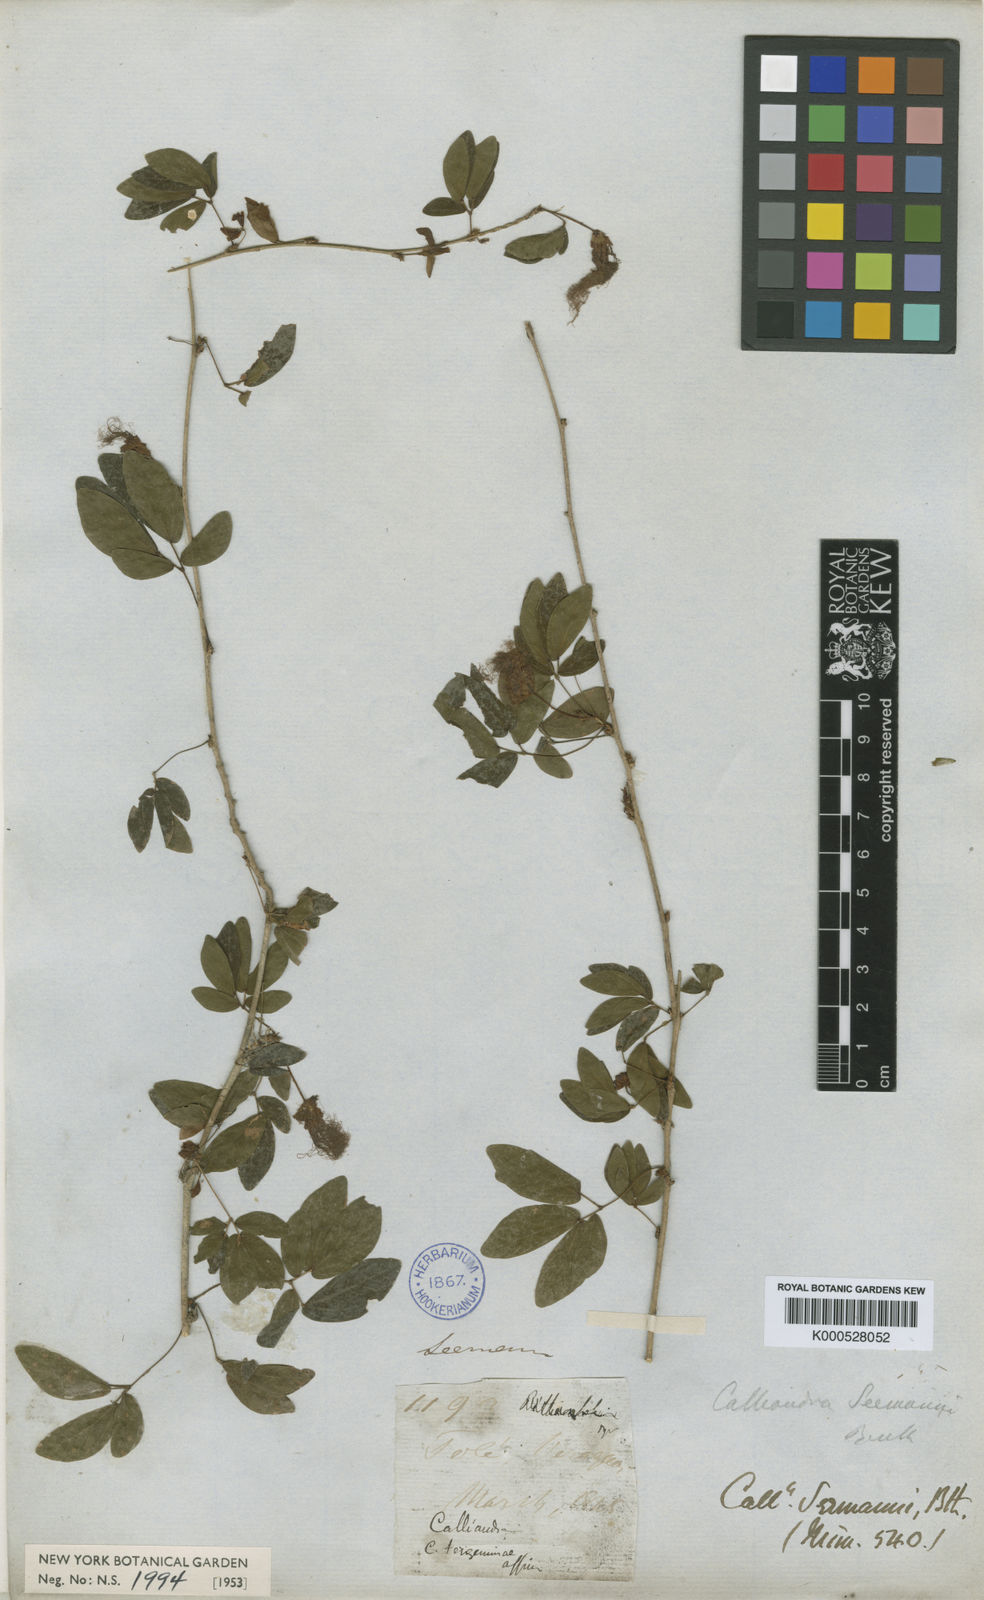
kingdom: Plantae
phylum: Tracheophyta
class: Magnoliopsida
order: Fabales
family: Fabaceae
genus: Calliandra
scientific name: Calliandra tergemina
